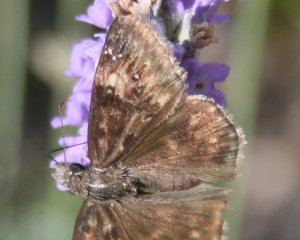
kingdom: Animalia
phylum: Arthropoda
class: Insecta
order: Lepidoptera
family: Hesperiidae
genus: Gesta
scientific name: Gesta
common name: Wild Indigo Duskywing
